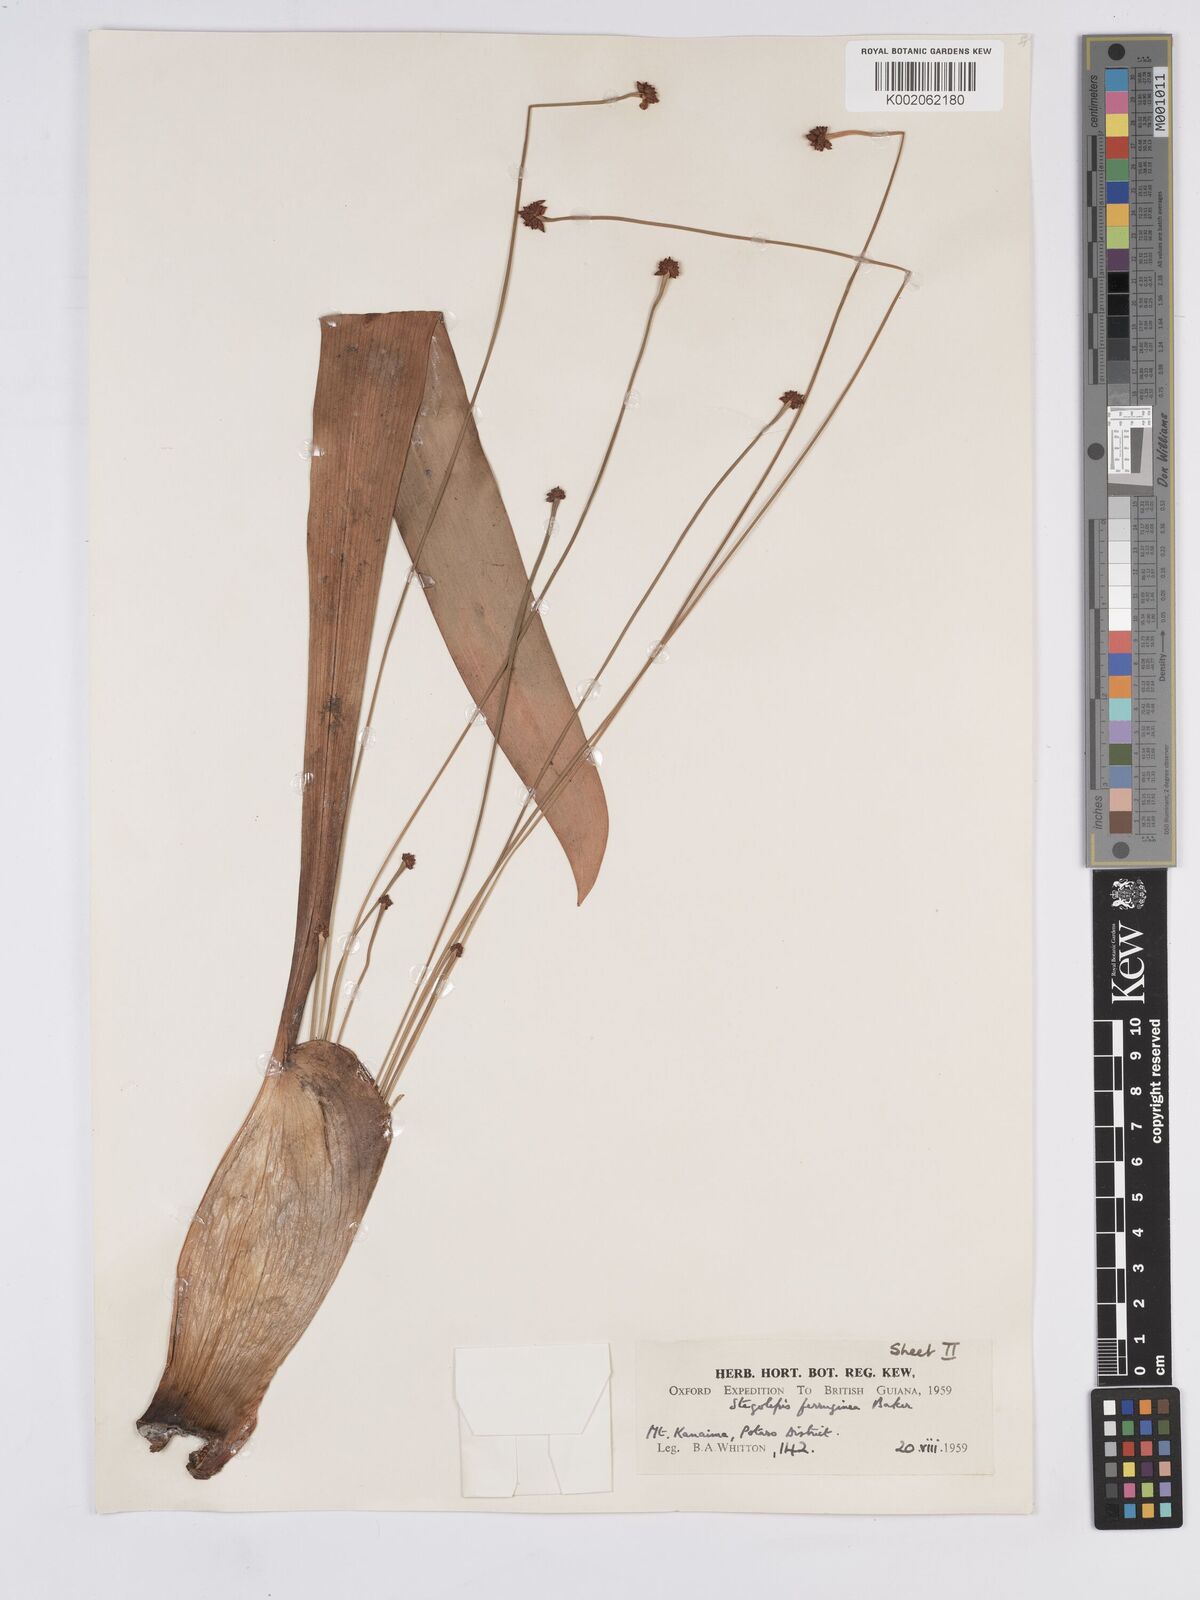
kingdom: Plantae
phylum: Tracheophyta
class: Liliopsida
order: Poales
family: Rapateaceae
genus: Stegolepis
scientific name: Stegolepis ferruginea
